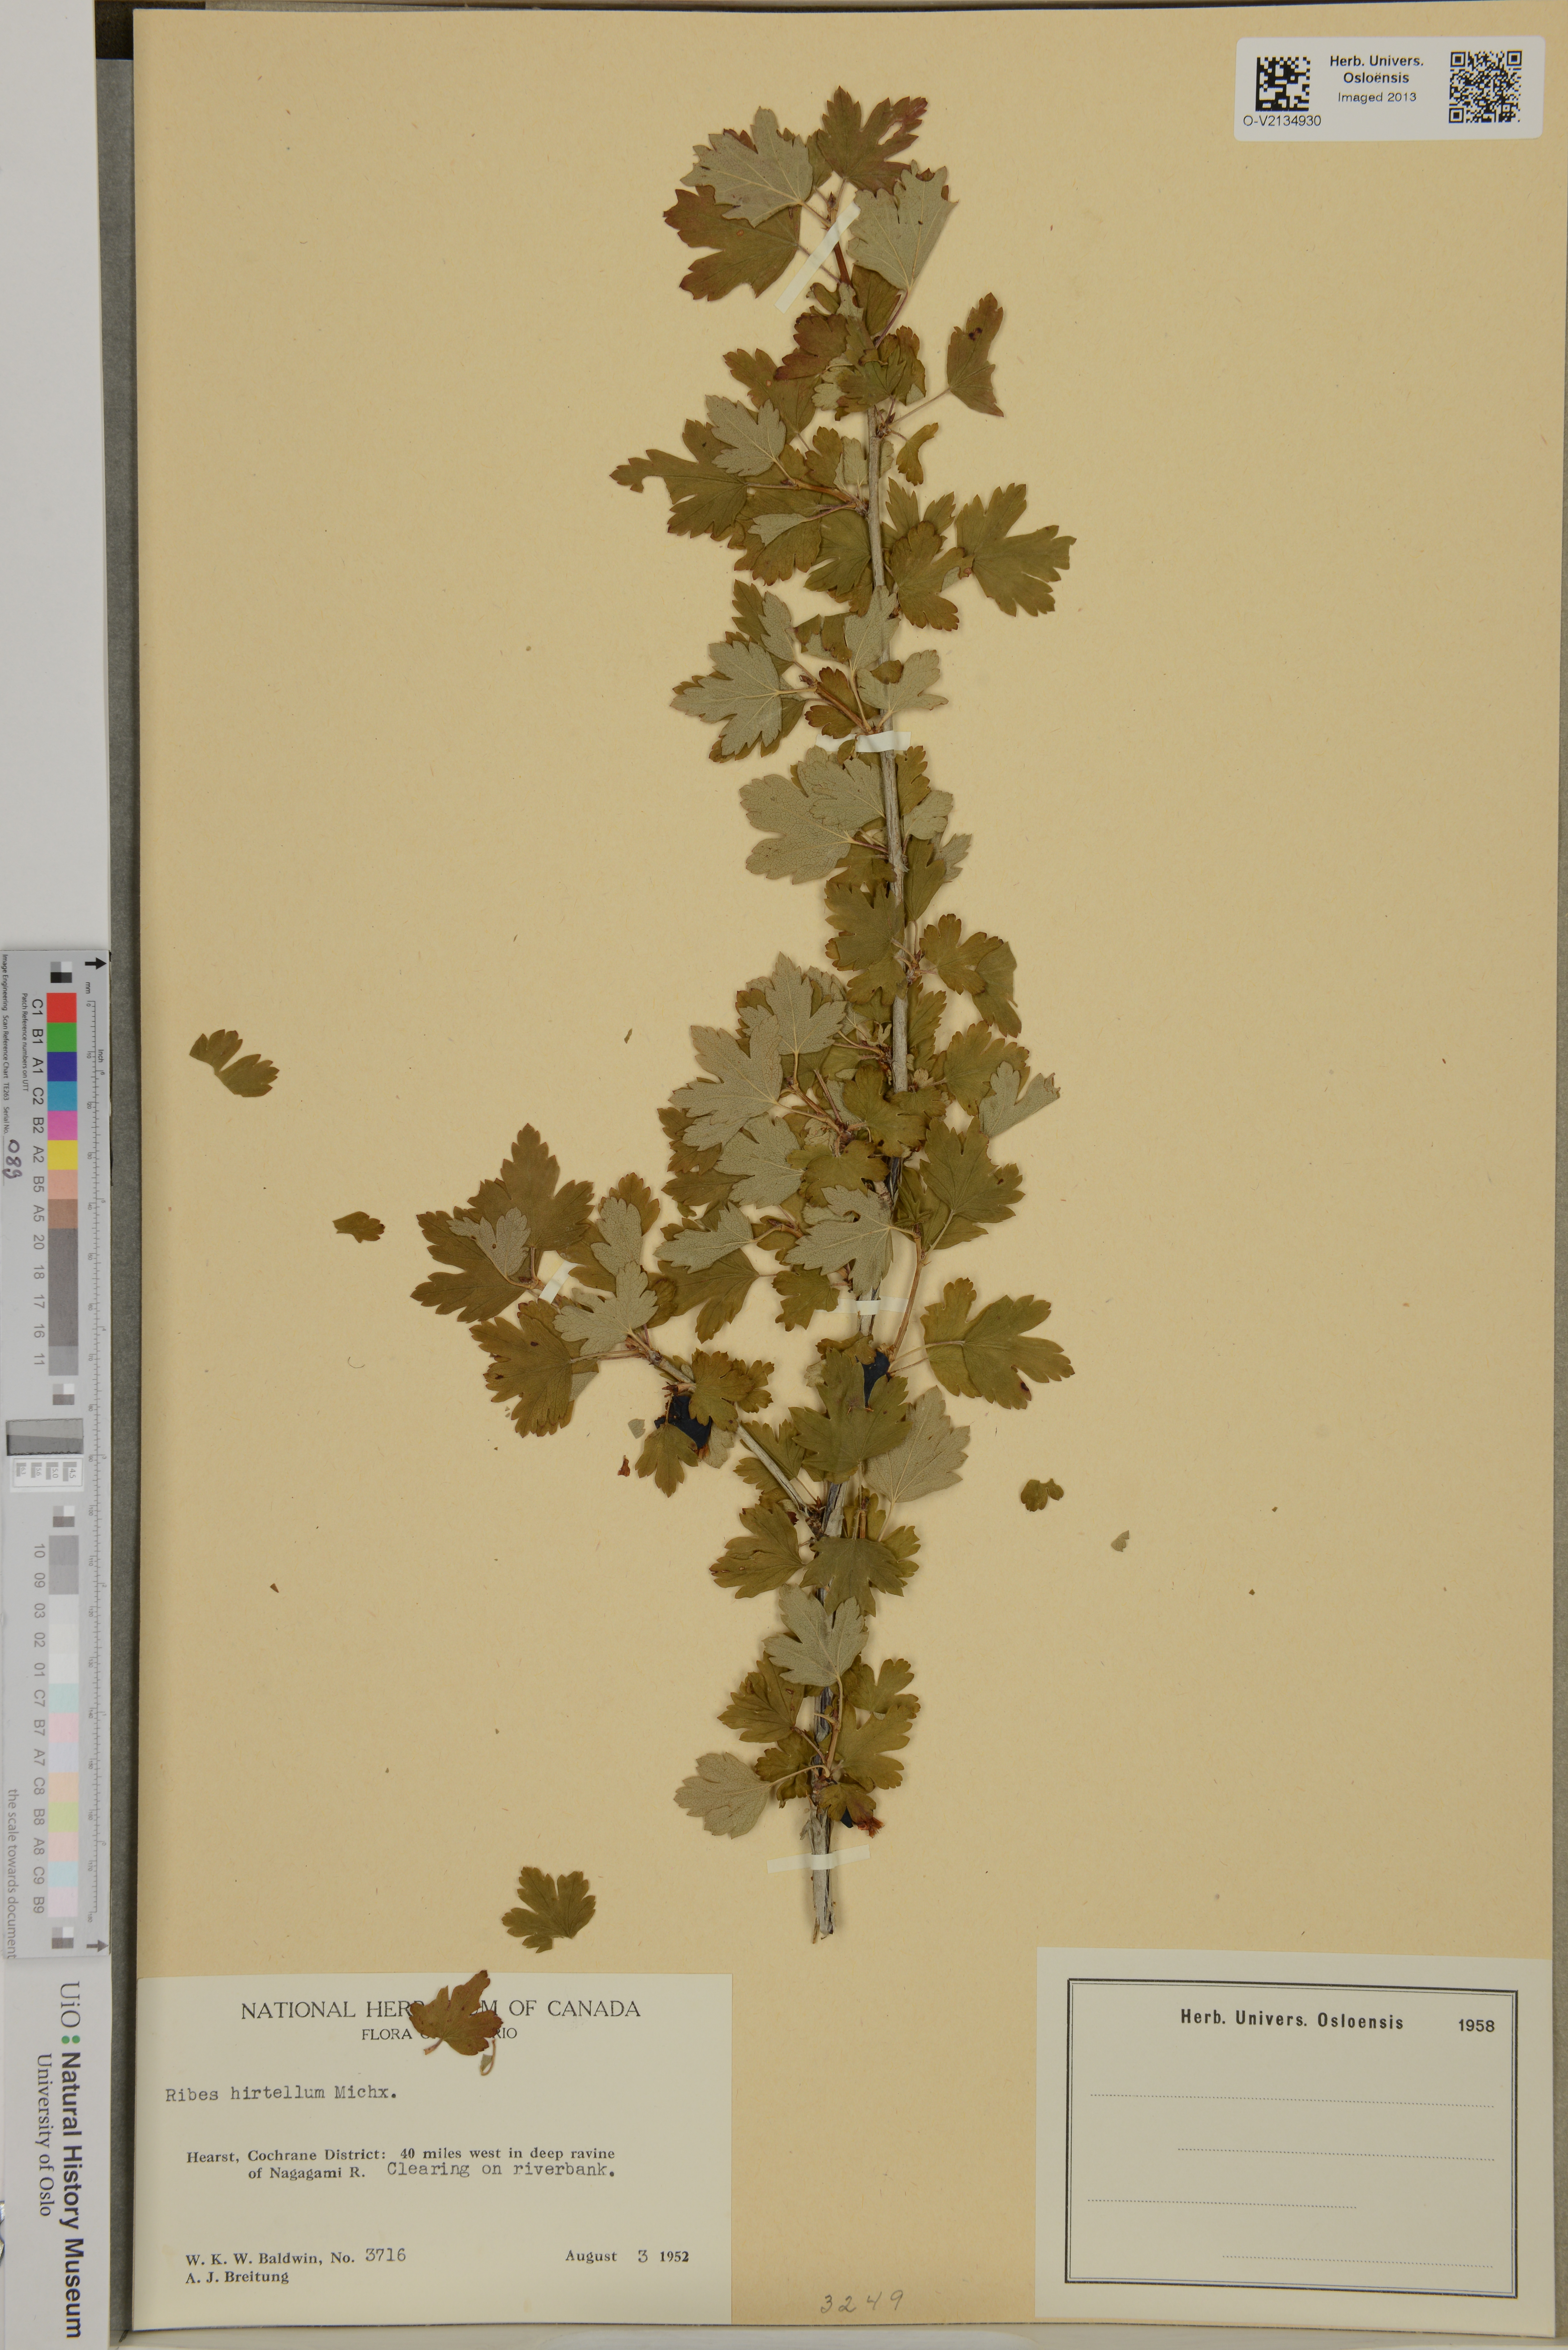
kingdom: Plantae
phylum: Tracheophyta
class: Magnoliopsida
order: Saxifragales
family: Grossulariaceae
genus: Ribes
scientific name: Ribes hirtellum
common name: Hairy gooseberry
